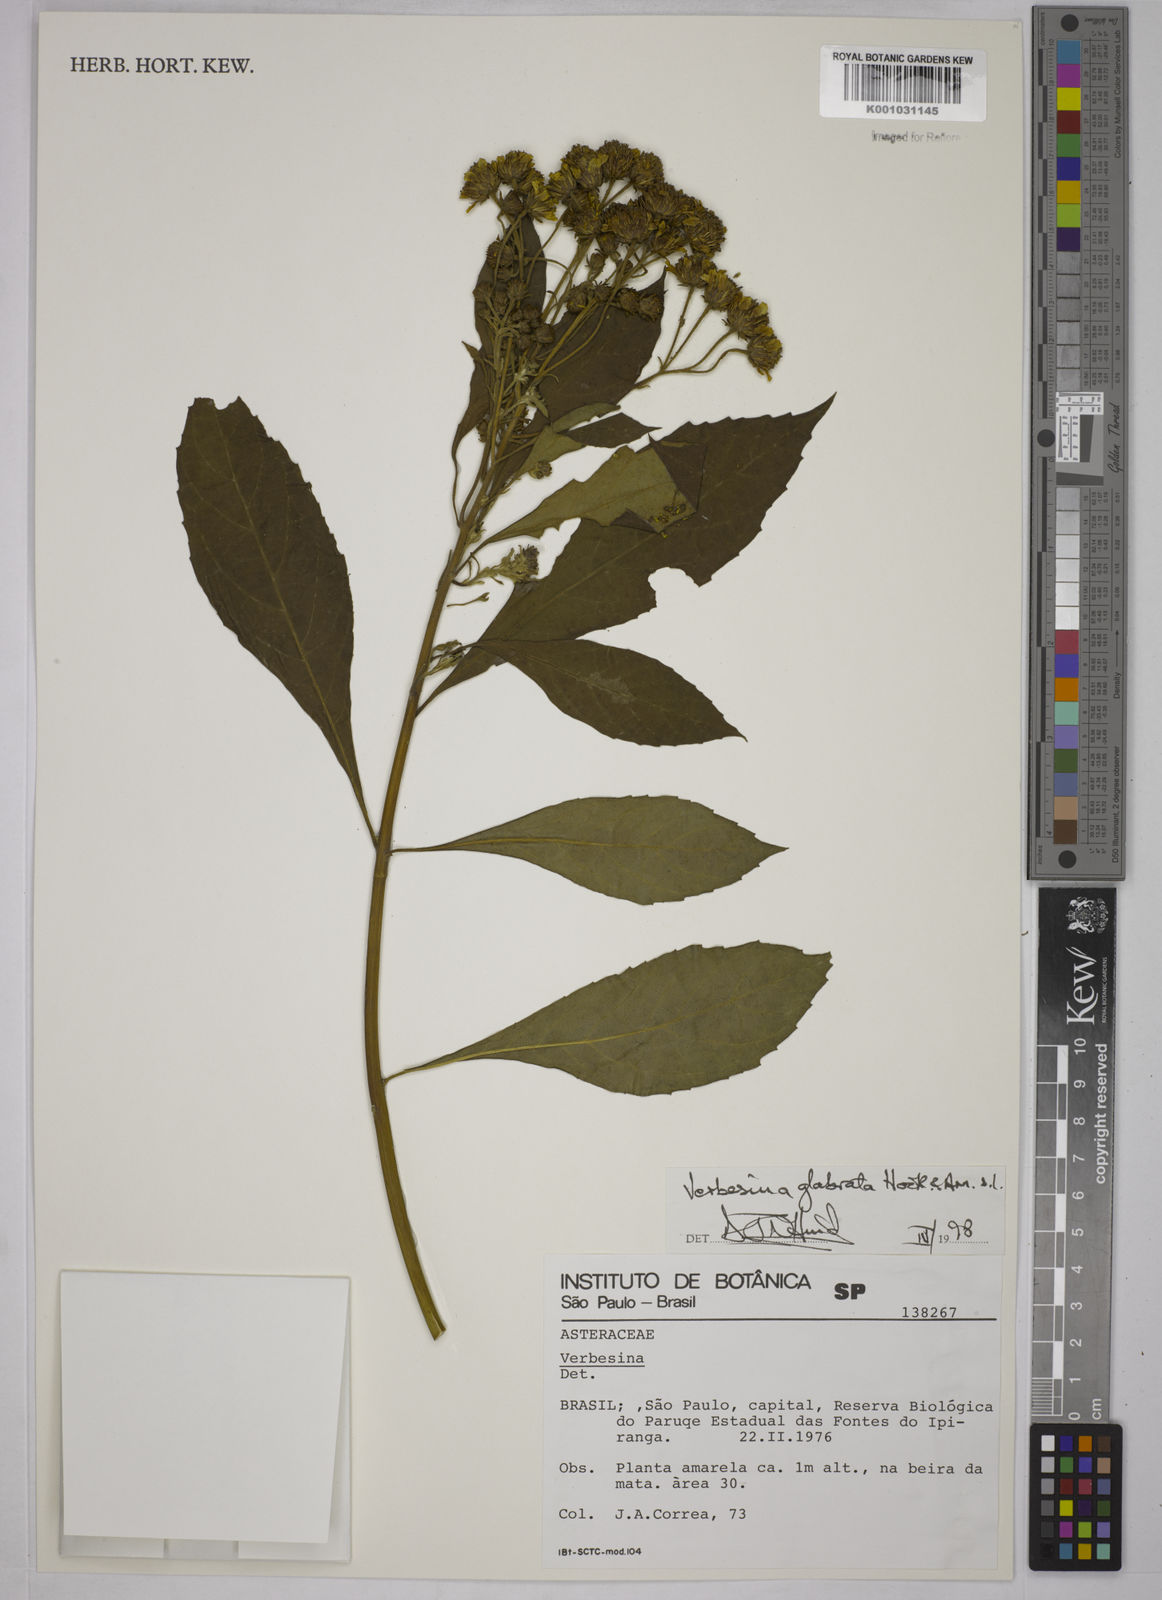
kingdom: Plantae
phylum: Tracheophyta
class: Magnoliopsida
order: Asterales
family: Asteraceae
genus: Verbesina
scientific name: Verbesina glabrata
